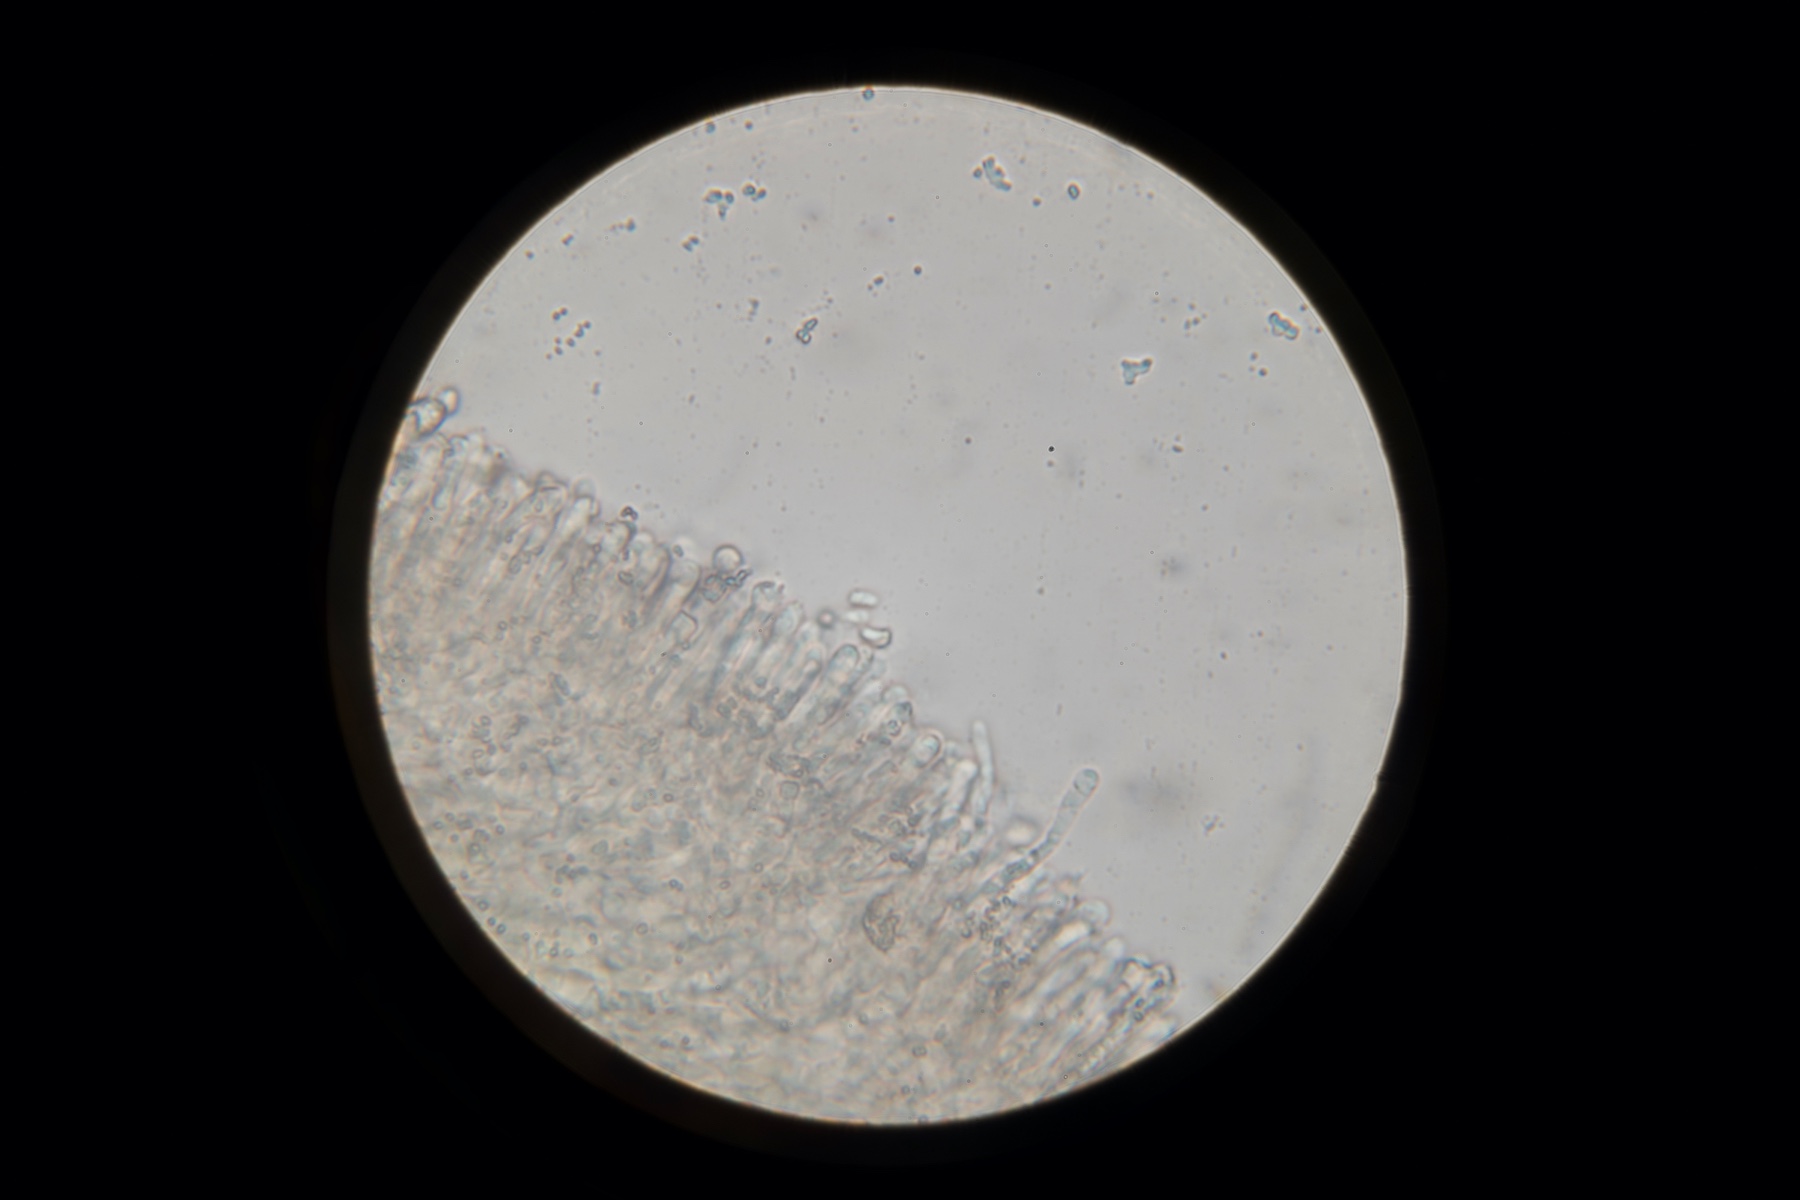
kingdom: Fungi
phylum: Basidiomycota
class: Agaricomycetes
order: Agaricales
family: Hygrophoraceae
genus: Hygrocybe
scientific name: Hygrocybe ceracea
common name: voksgul vokshat
